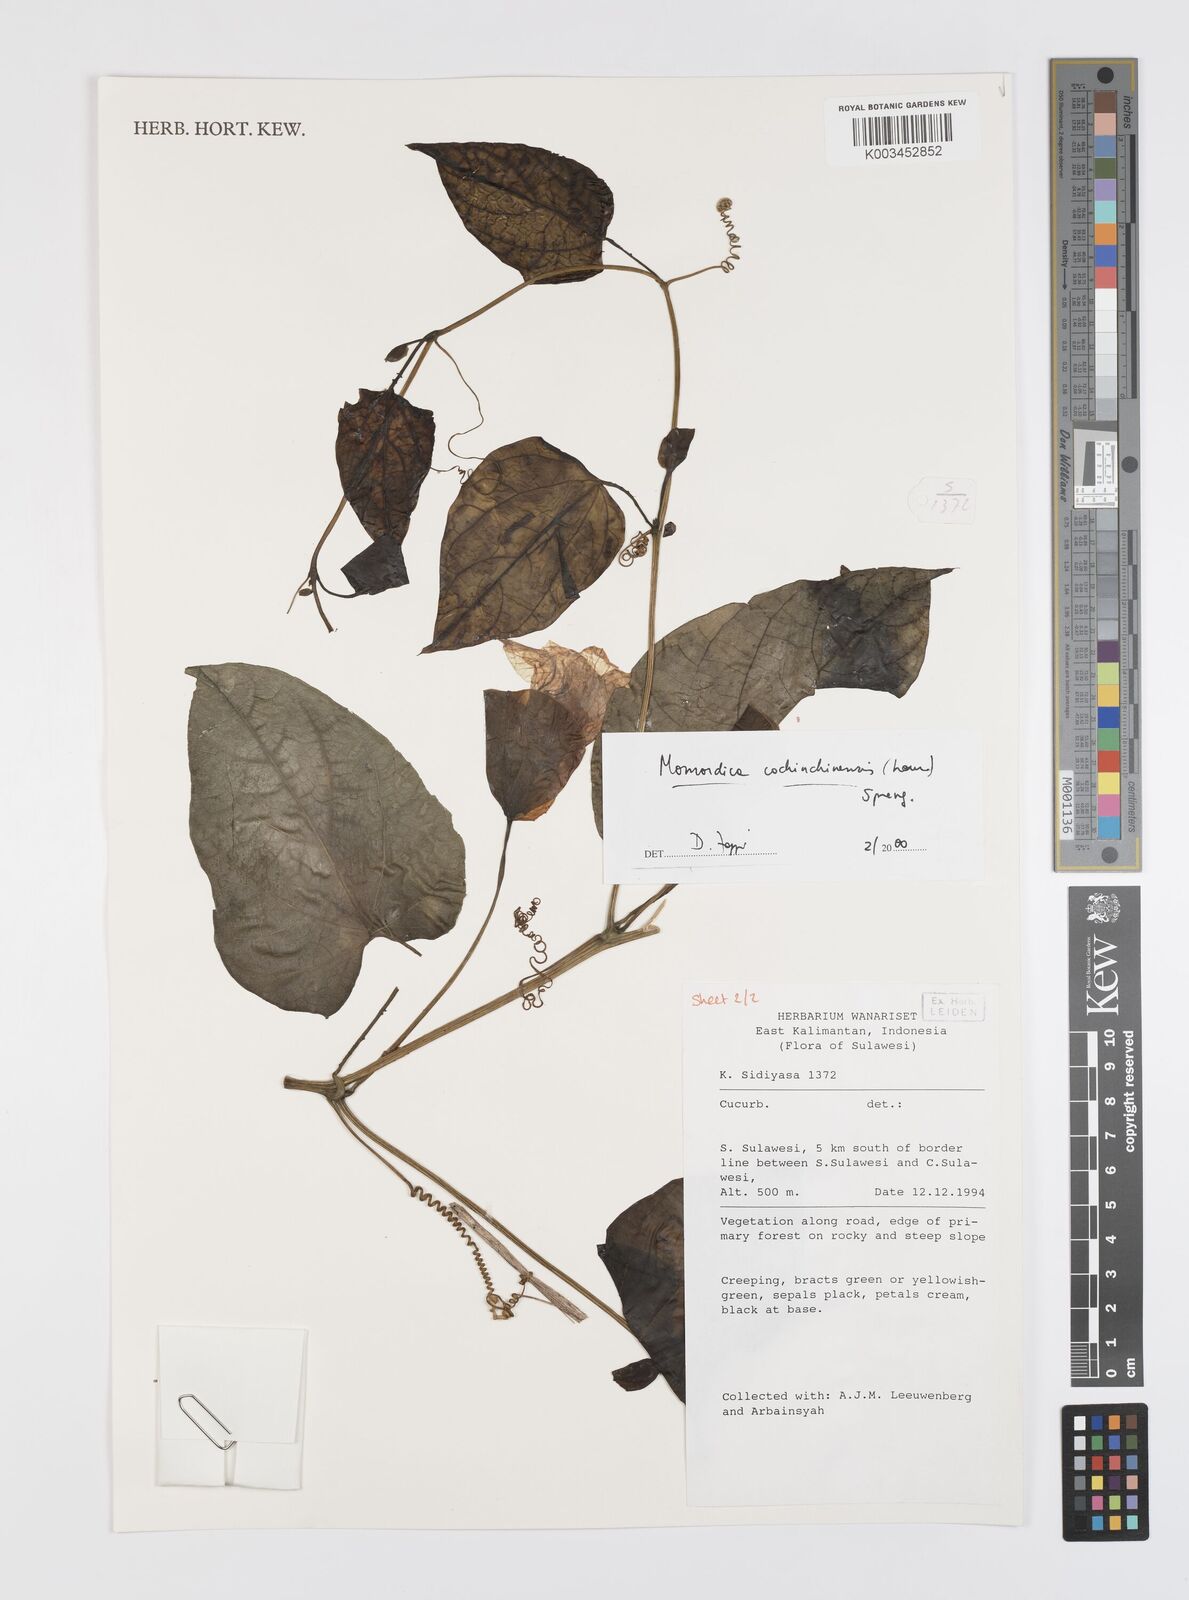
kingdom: Plantae
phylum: Tracheophyta
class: Magnoliopsida
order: Cucurbitales
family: Cucurbitaceae
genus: Momordica
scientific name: Momordica cochinchinensis
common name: Chinese bitter-cucumber
